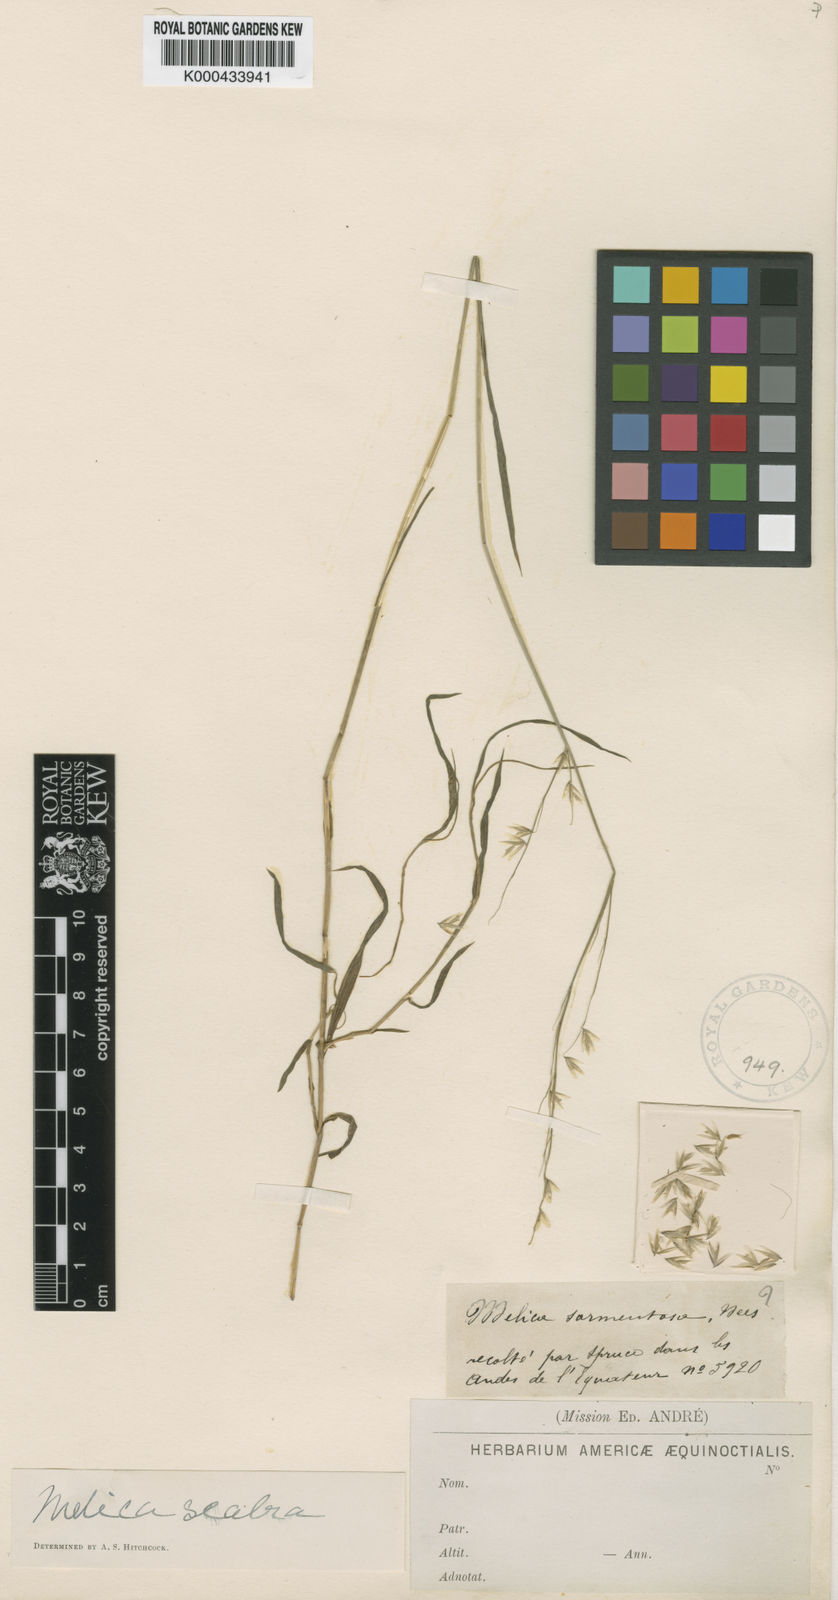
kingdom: Plantae
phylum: Tracheophyta
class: Liliopsida
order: Poales
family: Poaceae
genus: Melica
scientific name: Melica
